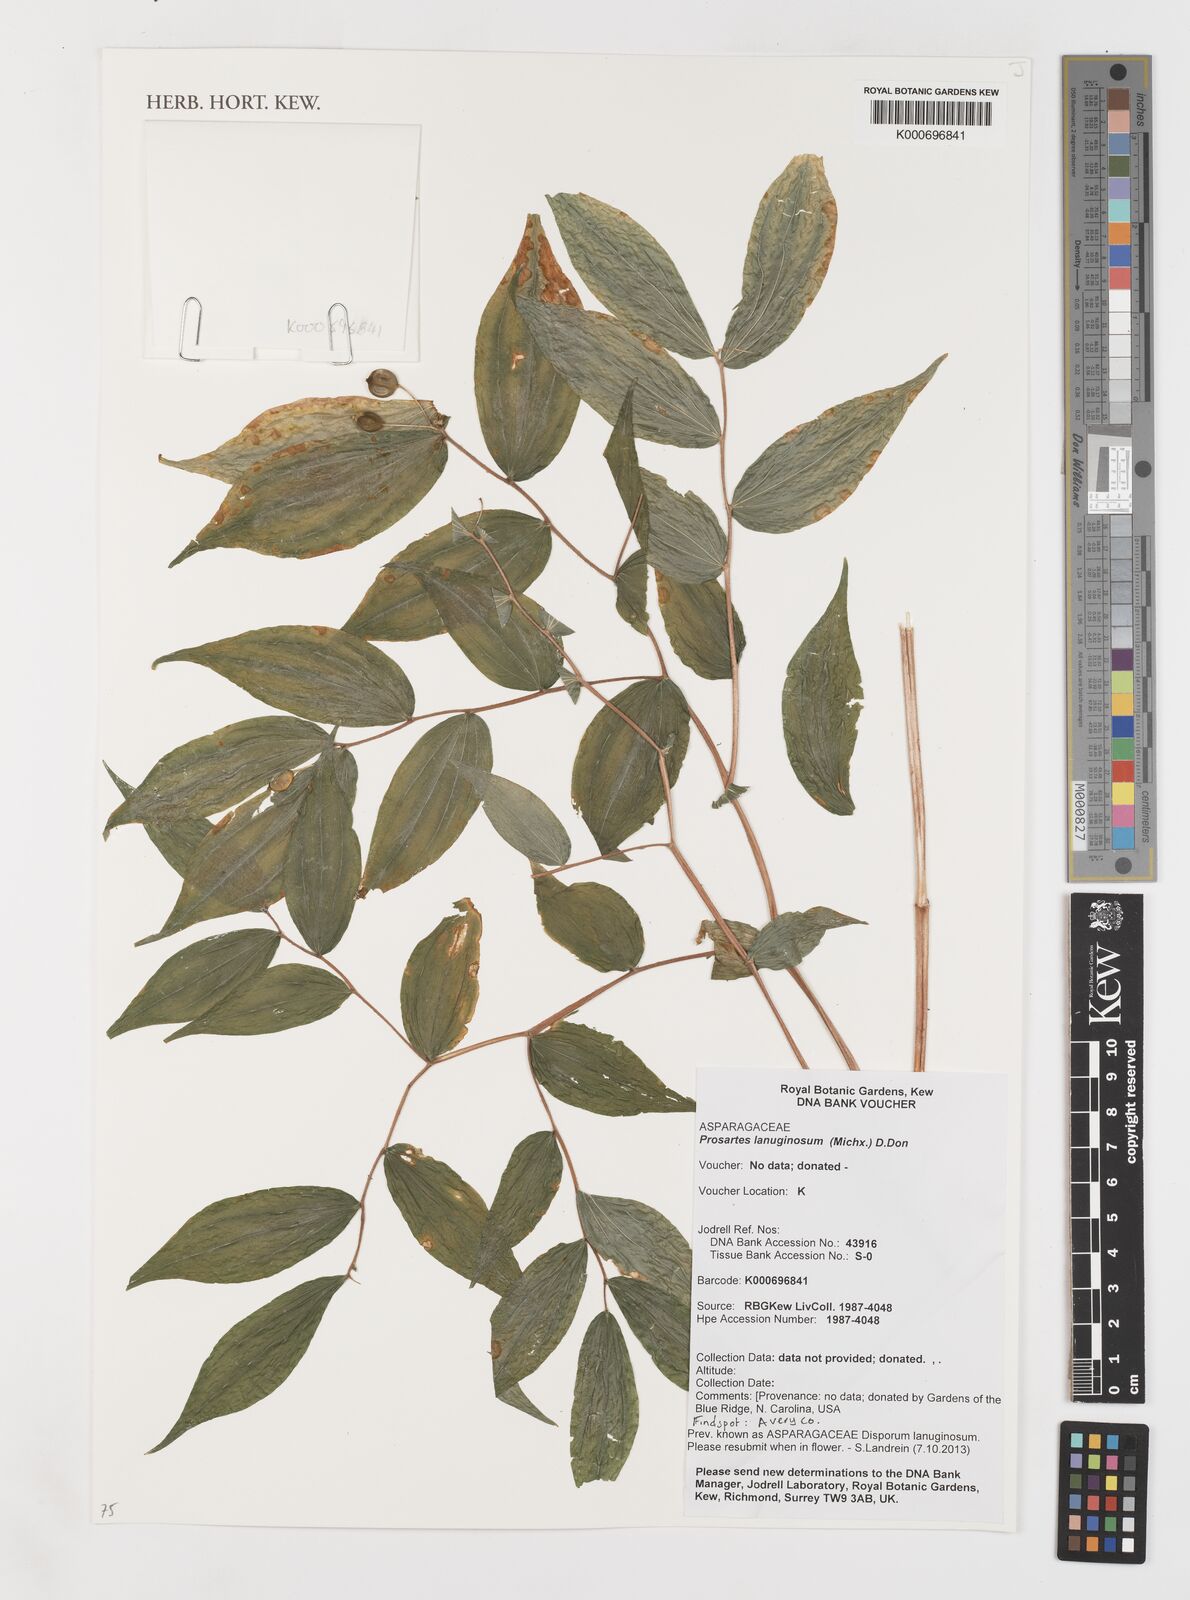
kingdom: Plantae
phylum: Tracheophyta
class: Liliopsida
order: Liliales
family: Liliaceae
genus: Prosartes
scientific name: Prosartes lanuginosa
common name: Hairy mandarin
